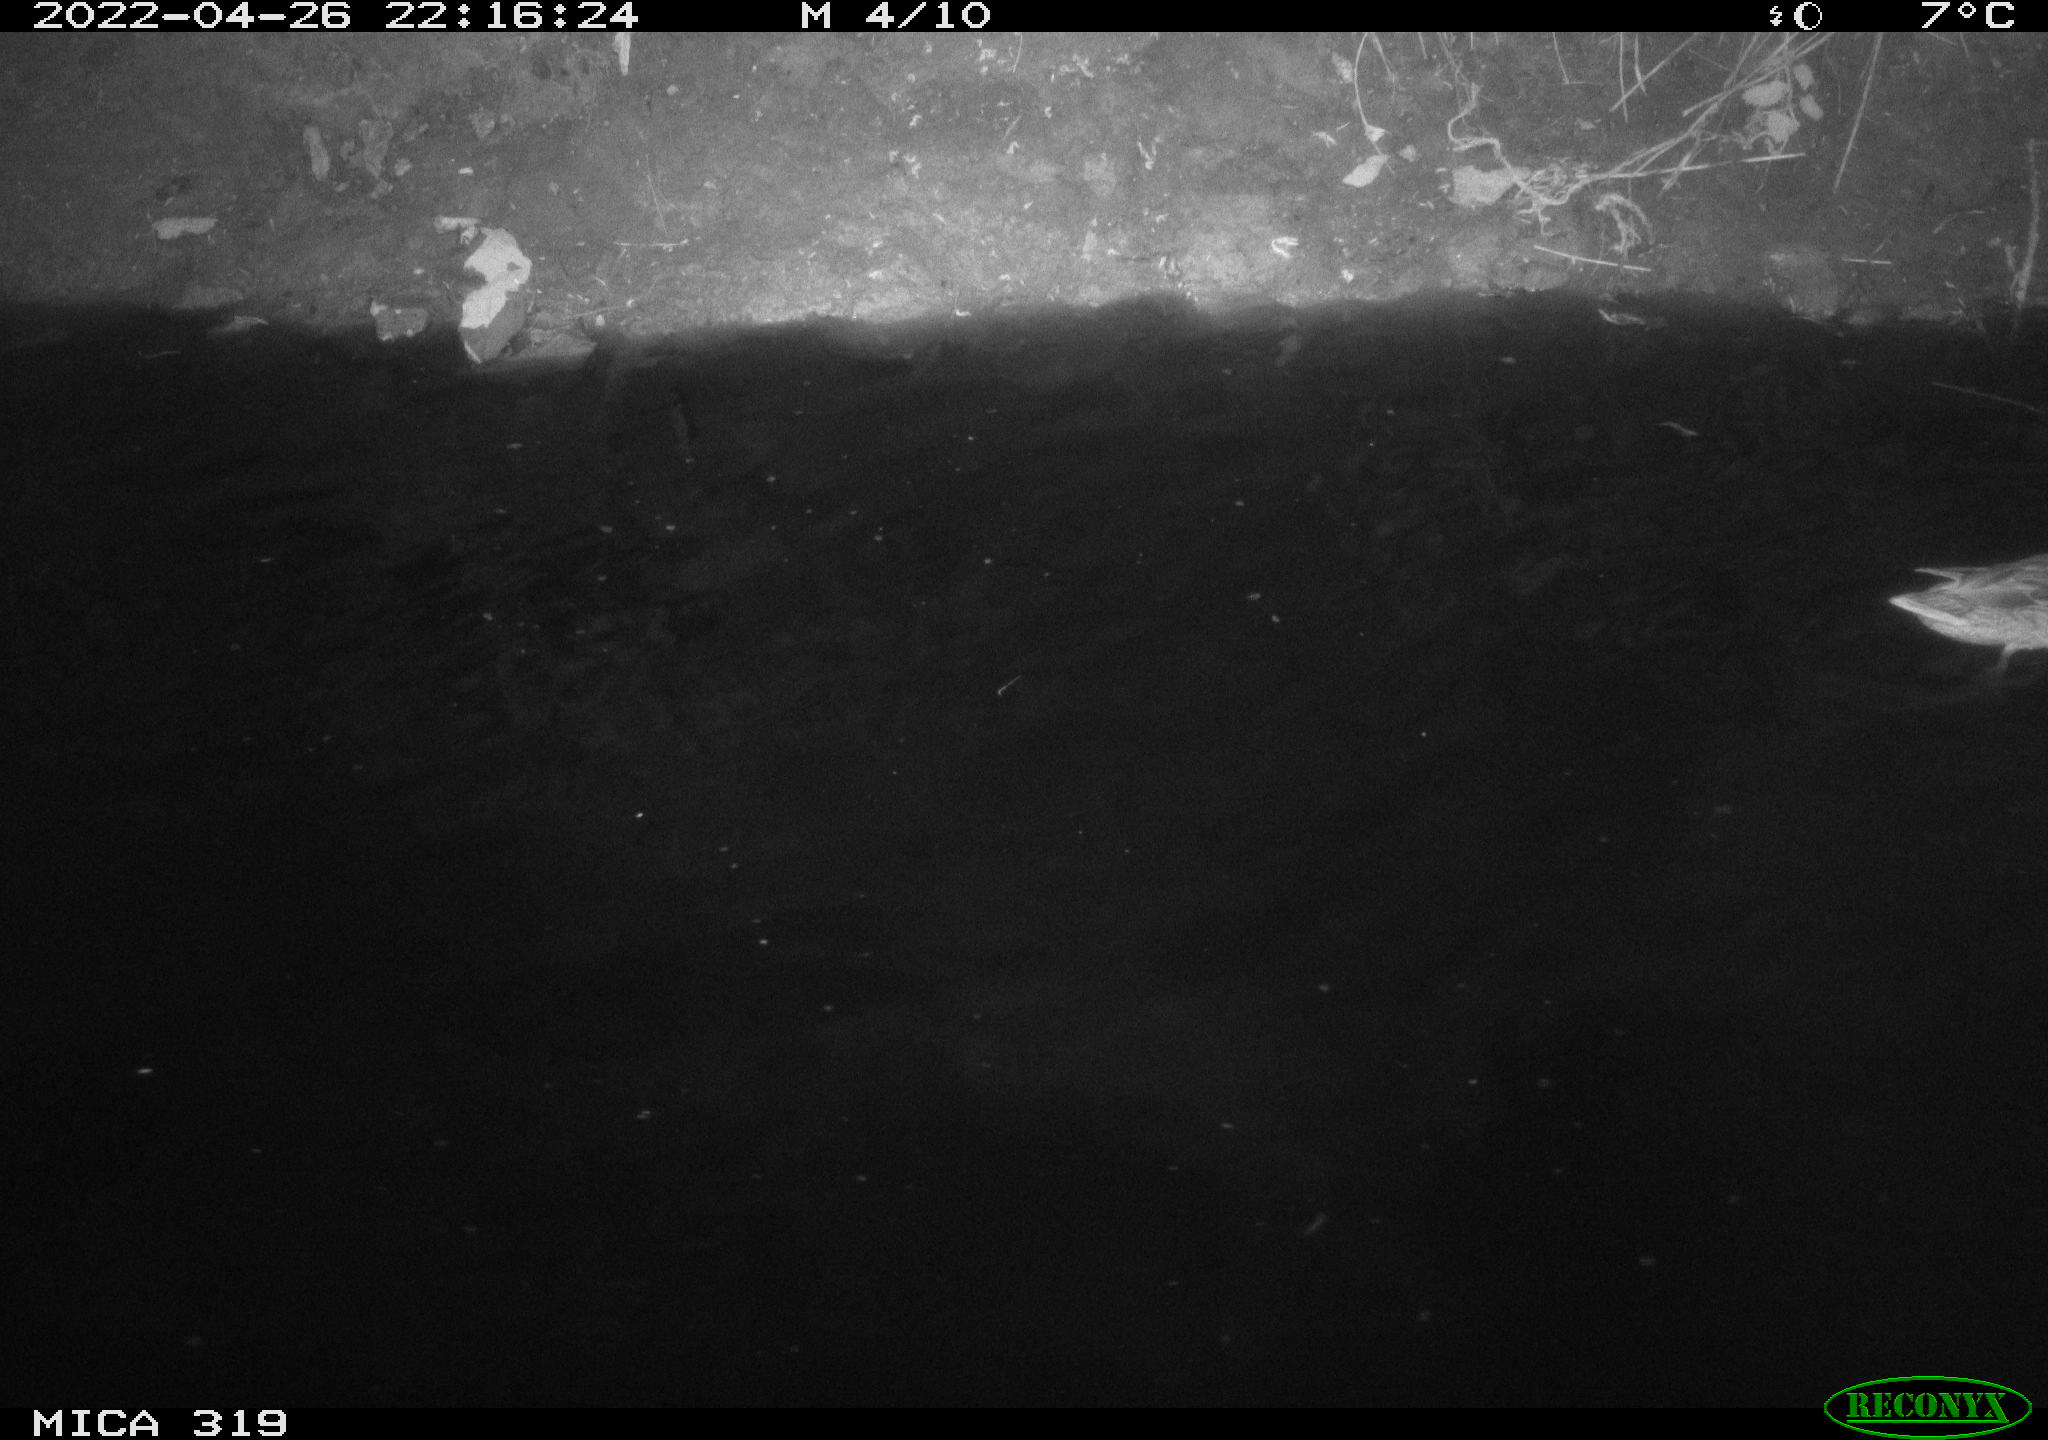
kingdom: Animalia
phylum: Chordata
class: Aves
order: Anseriformes
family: Anatidae
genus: Anas
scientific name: Anas platyrhynchos
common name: Mallard
